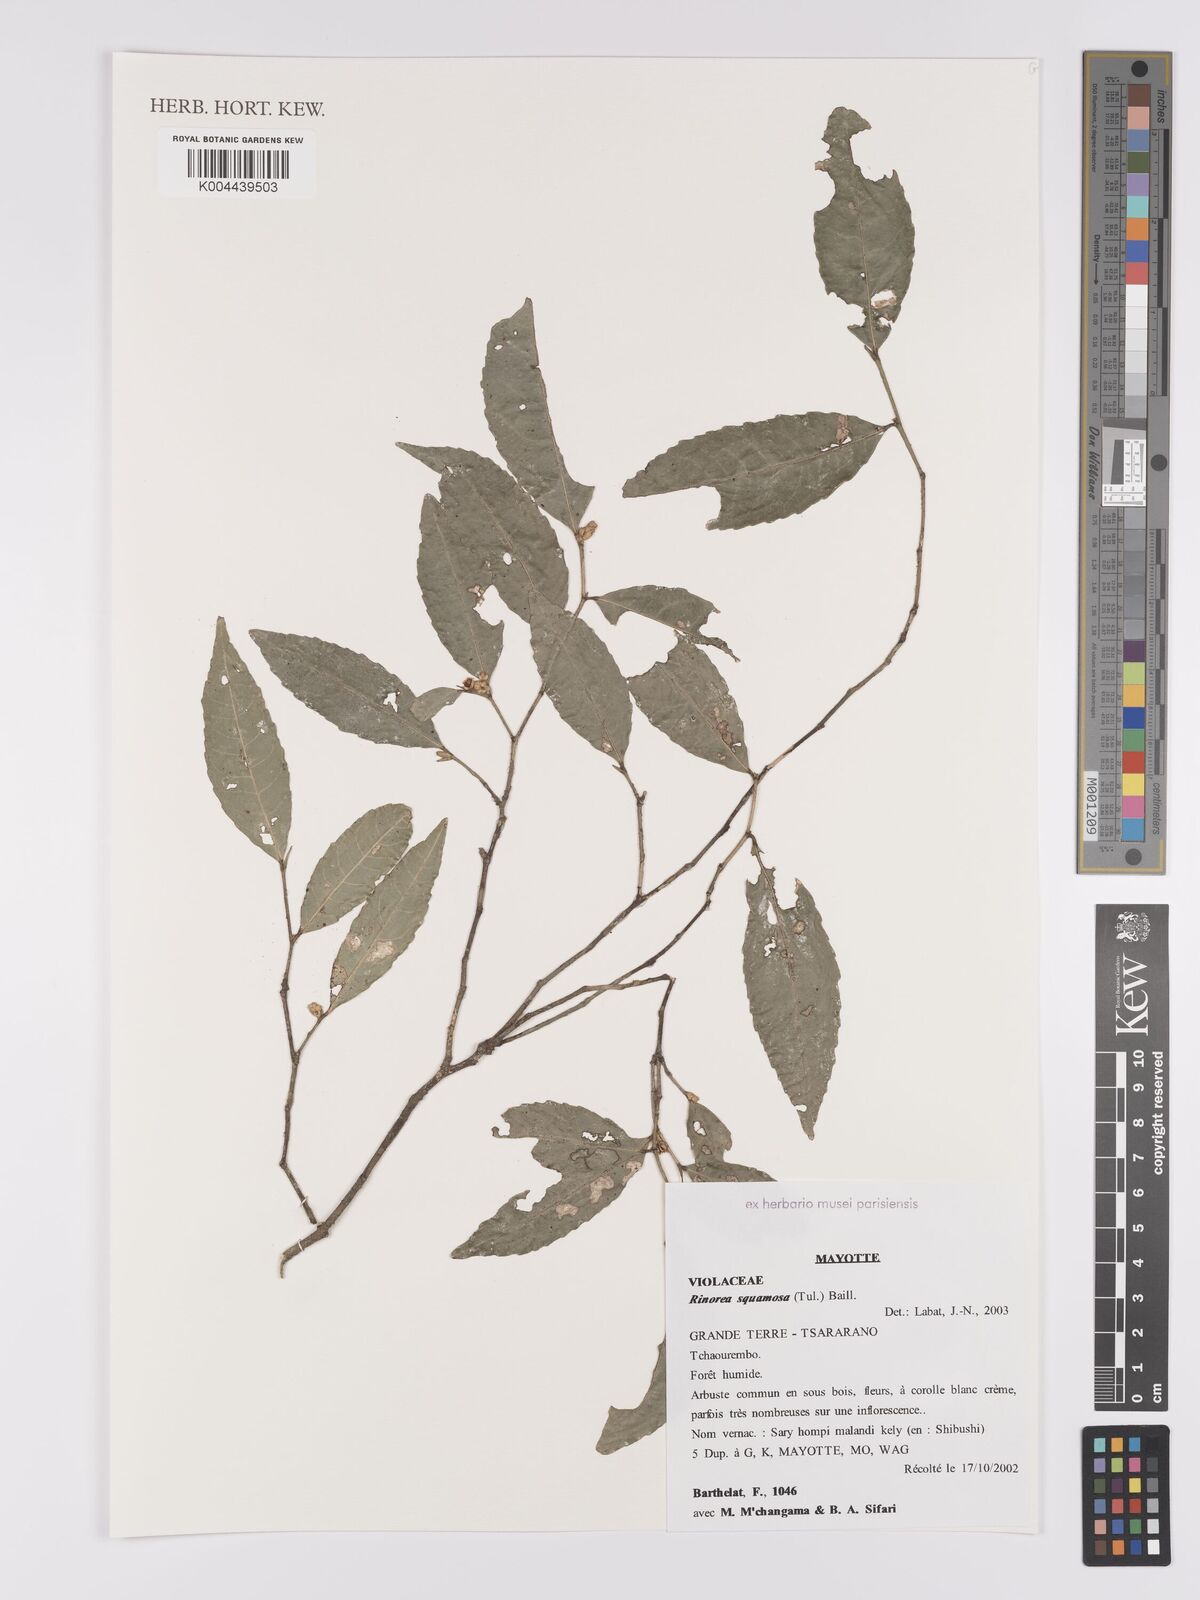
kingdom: Plantae
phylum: Tracheophyta
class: Magnoliopsida
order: Malpighiales
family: Violaceae
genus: Rinorea
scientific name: Rinorea squamosa
